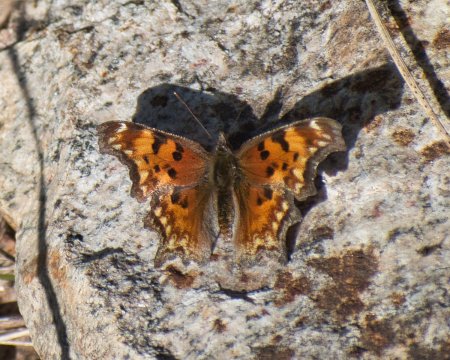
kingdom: Animalia
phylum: Arthropoda
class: Insecta
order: Lepidoptera
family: Nymphalidae
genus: Polygonia
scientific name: Polygonia gracilis
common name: Hoary Comma
